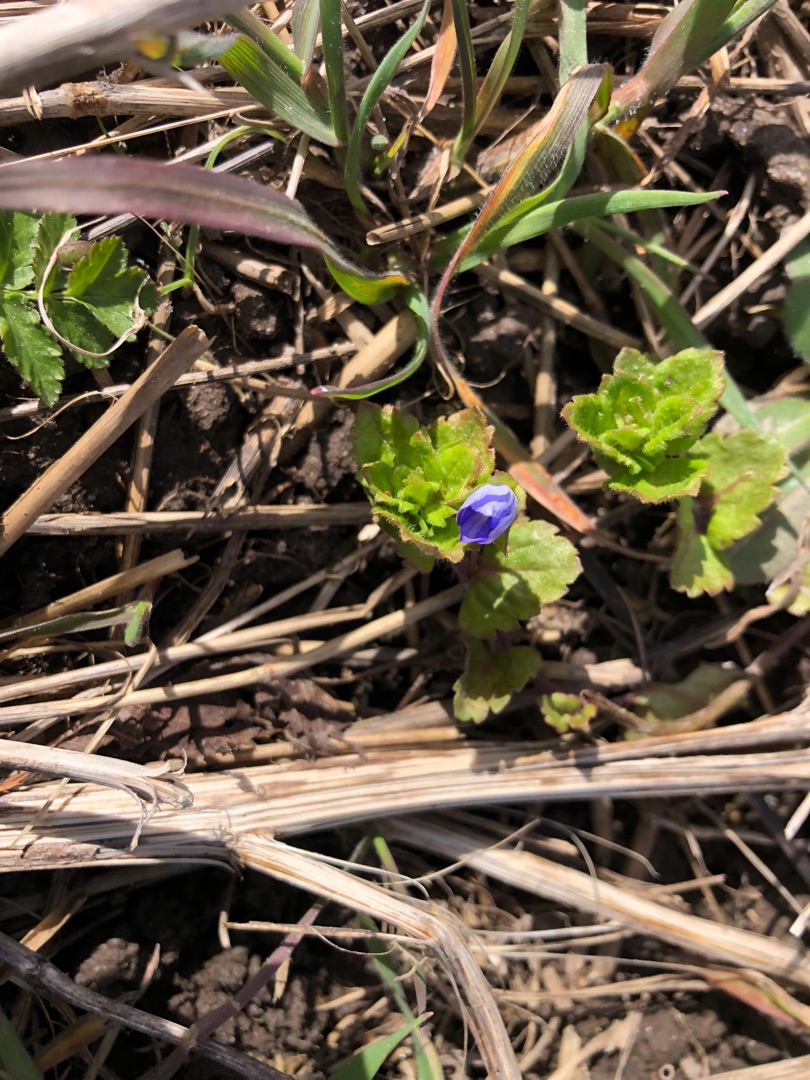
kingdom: Plantae
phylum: Tracheophyta
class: Magnoliopsida
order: Lamiales
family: Plantaginaceae
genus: Veronica
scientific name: Veronica persica
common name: Storkronet ærenpris
